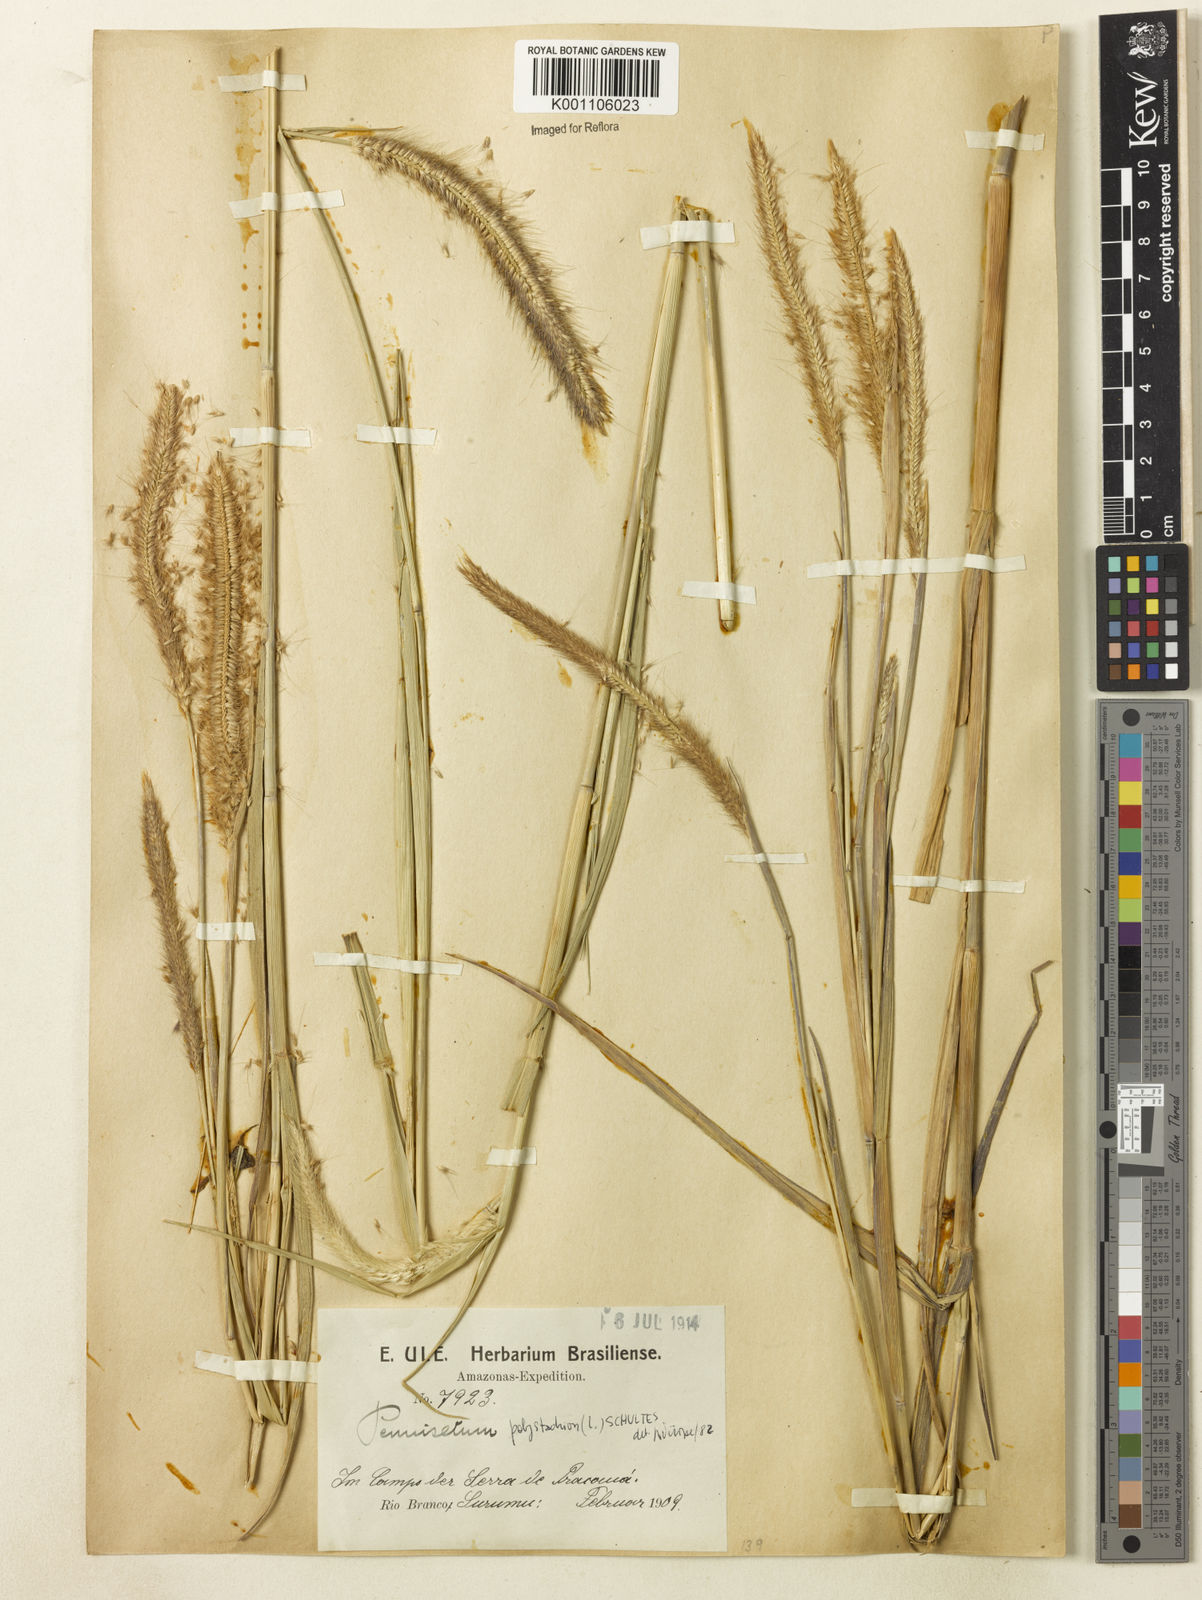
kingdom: Plantae
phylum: Tracheophyta
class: Liliopsida
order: Poales
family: Poaceae
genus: Setaria
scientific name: Setaria parviflora
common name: Knotroot bristle-grass
